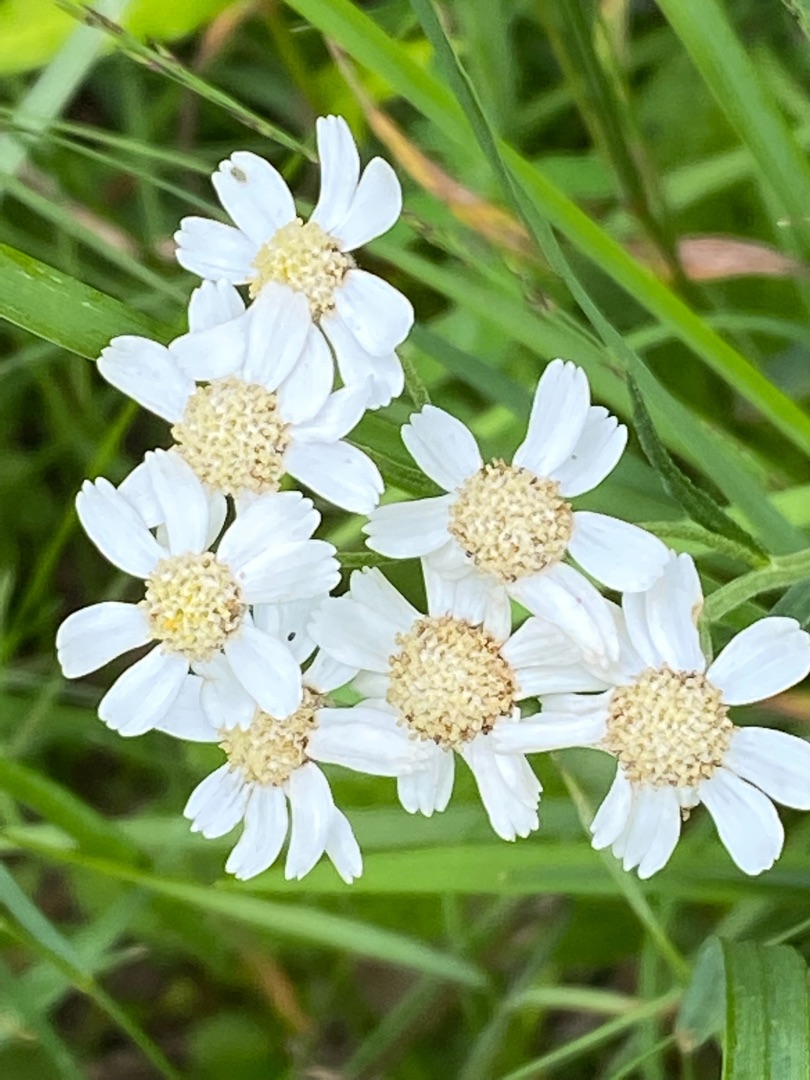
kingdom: Plantae
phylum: Tracheophyta
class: Magnoliopsida
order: Asterales
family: Asteraceae
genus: Achillea
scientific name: Achillea ptarmica
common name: Nyse-røllike
